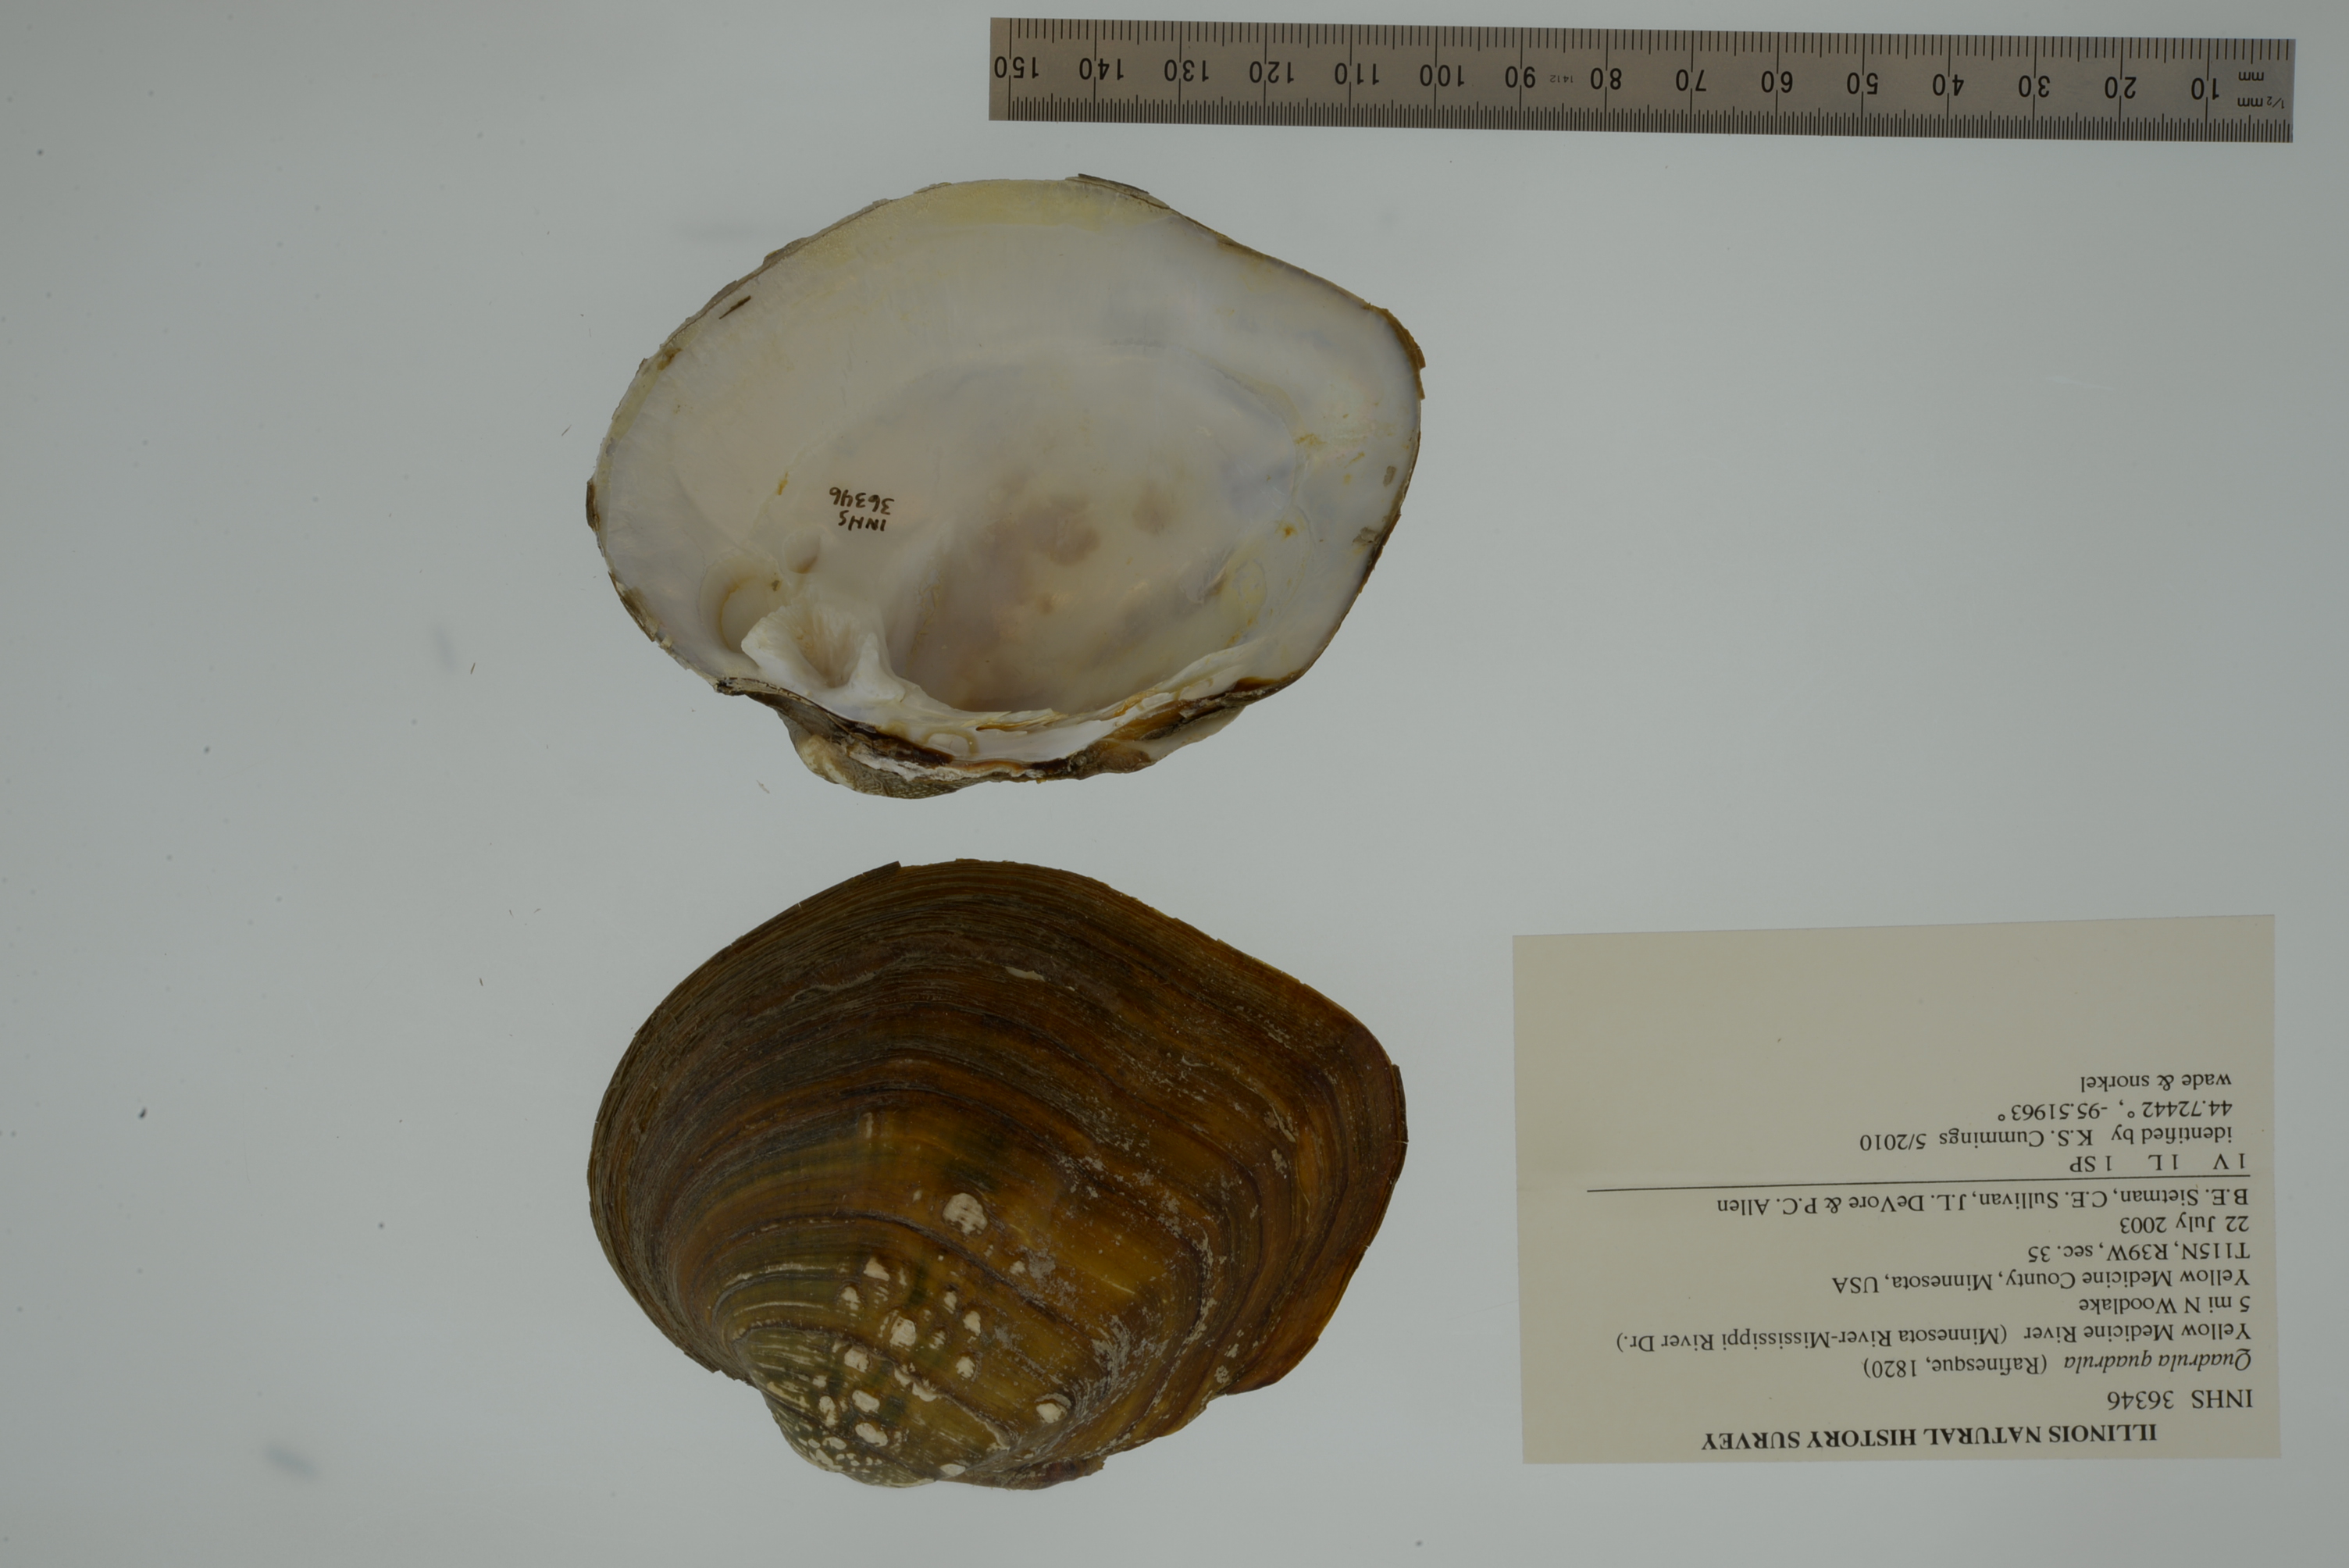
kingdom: Animalia
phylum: Mollusca
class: Bivalvia
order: Unionida
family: Unionidae
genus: Quadrula
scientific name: Quadrula quadrula
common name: Mapleleaf
